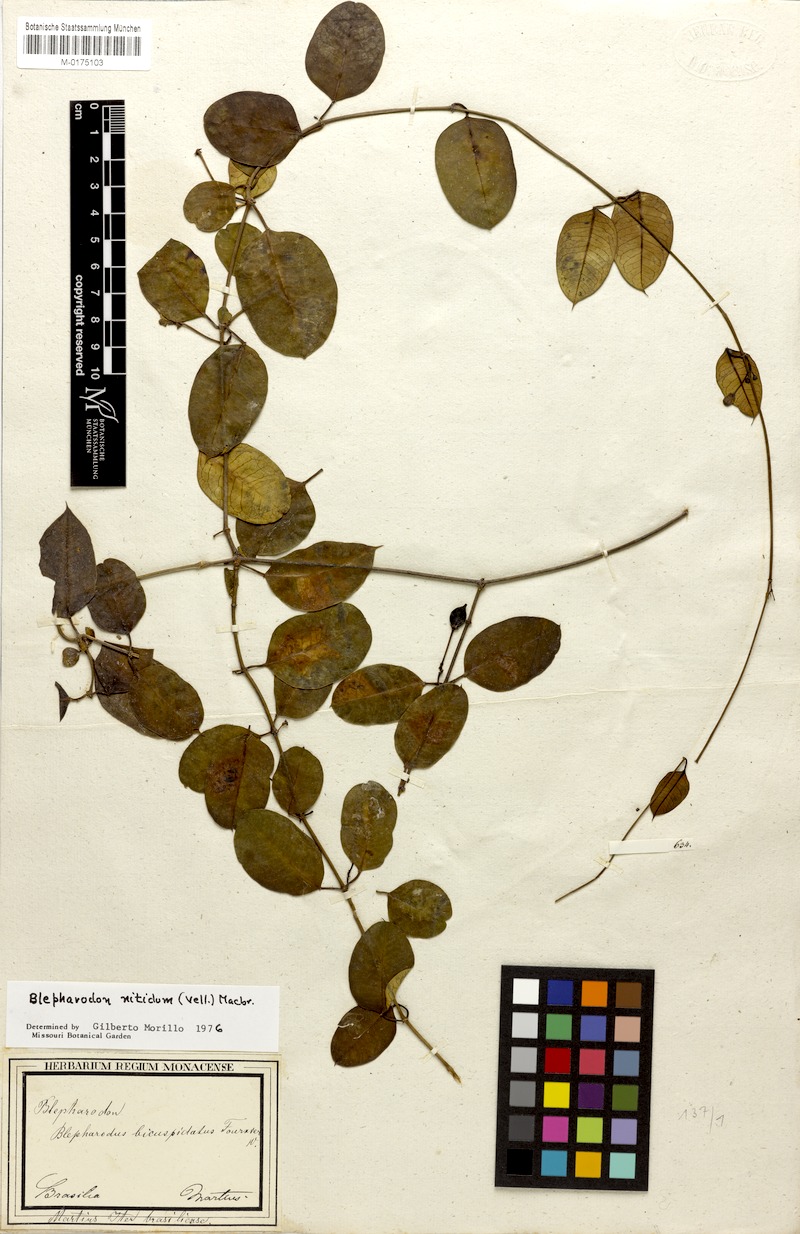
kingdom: Plantae
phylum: Tracheophyta
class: Magnoliopsida
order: Gentianales
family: Apocynaceae
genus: Blepharodon
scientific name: Blepharodon pictum
